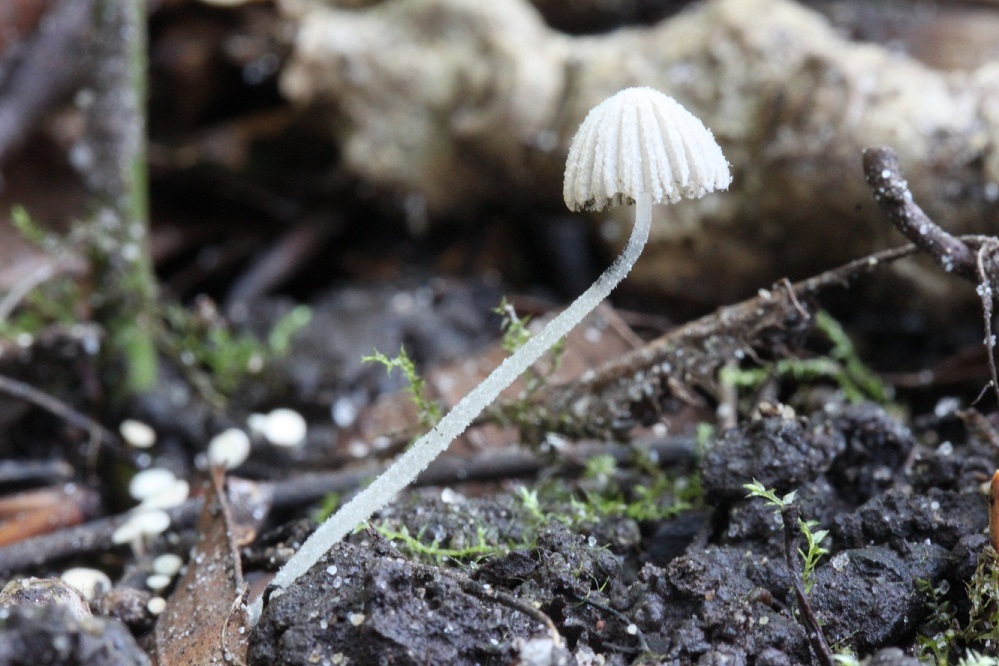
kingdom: Fungi
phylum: Basidiomycota
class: Agaricomycetes
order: Agaricales
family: Psathyrellaceae
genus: Coprinopsis
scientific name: Coprinopsis cortinata
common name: slør-blækhat
